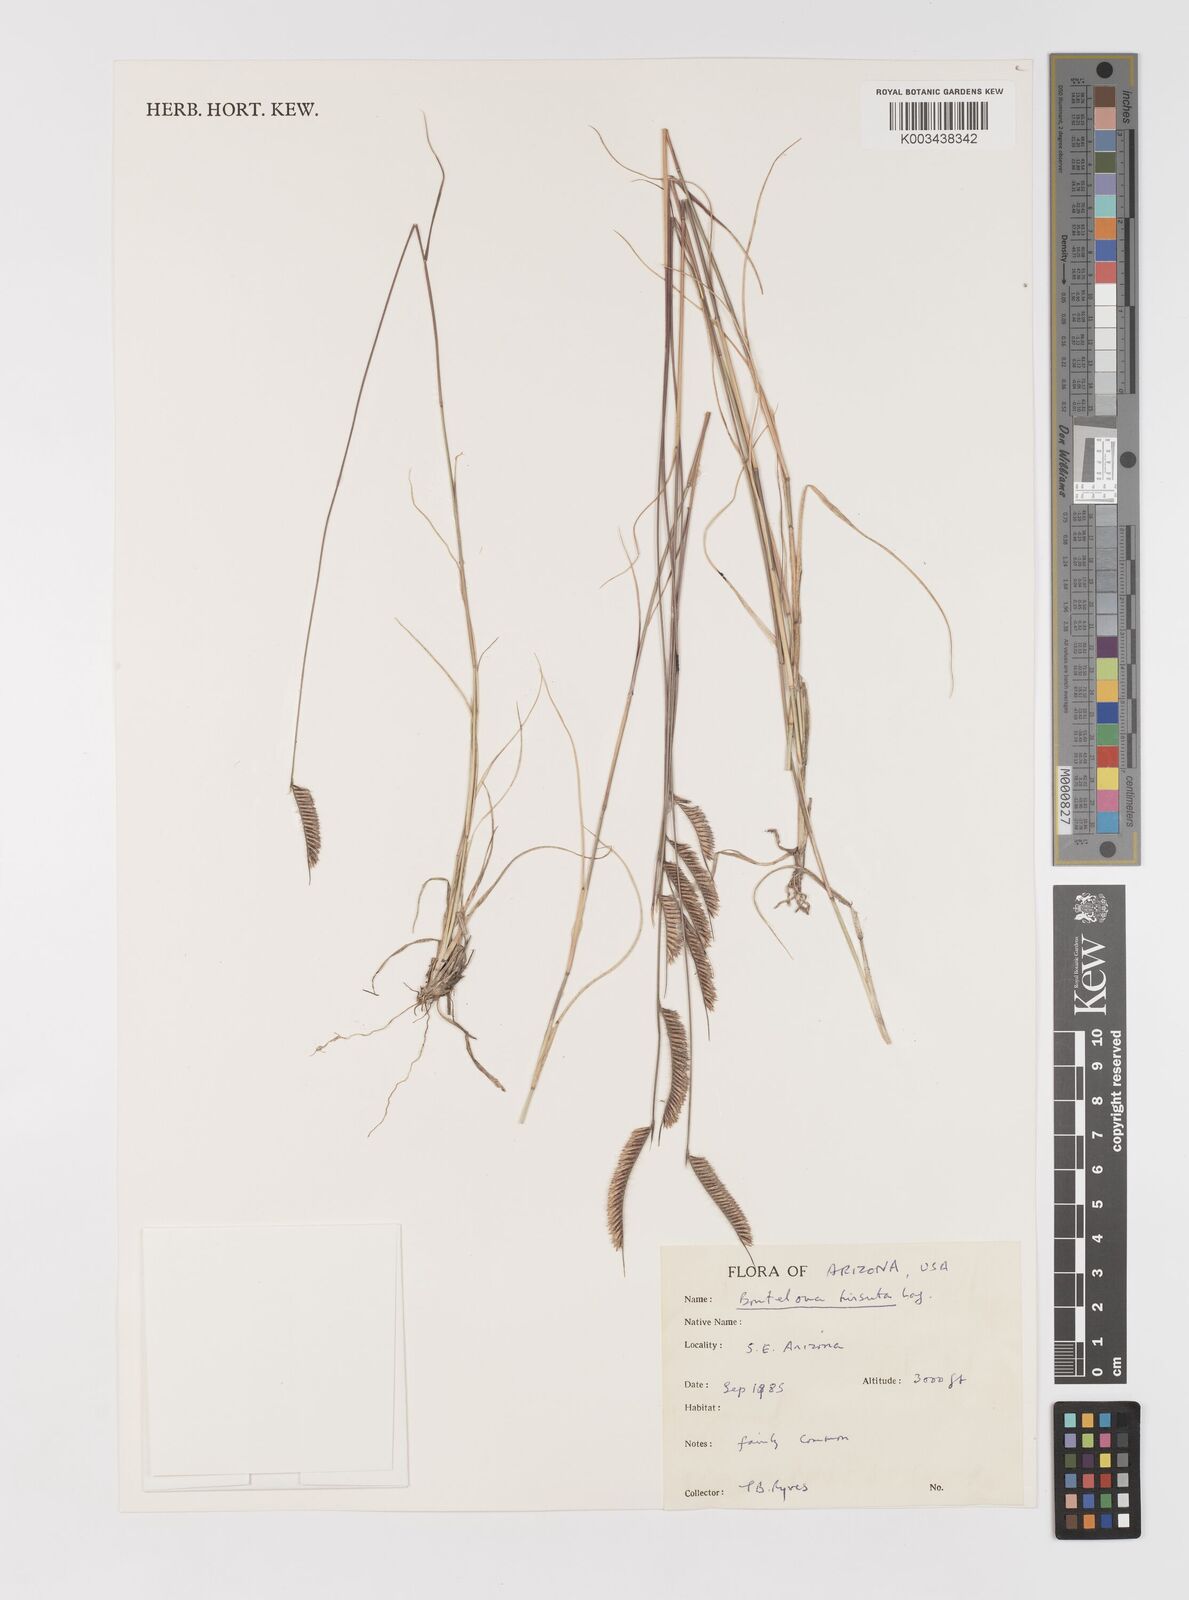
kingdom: Plantae
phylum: Tracheophyta
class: Liliopsida
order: Poales
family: Poaceae
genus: Bouteloua
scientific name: Bouteloua hirsuta
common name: Hairy grama
